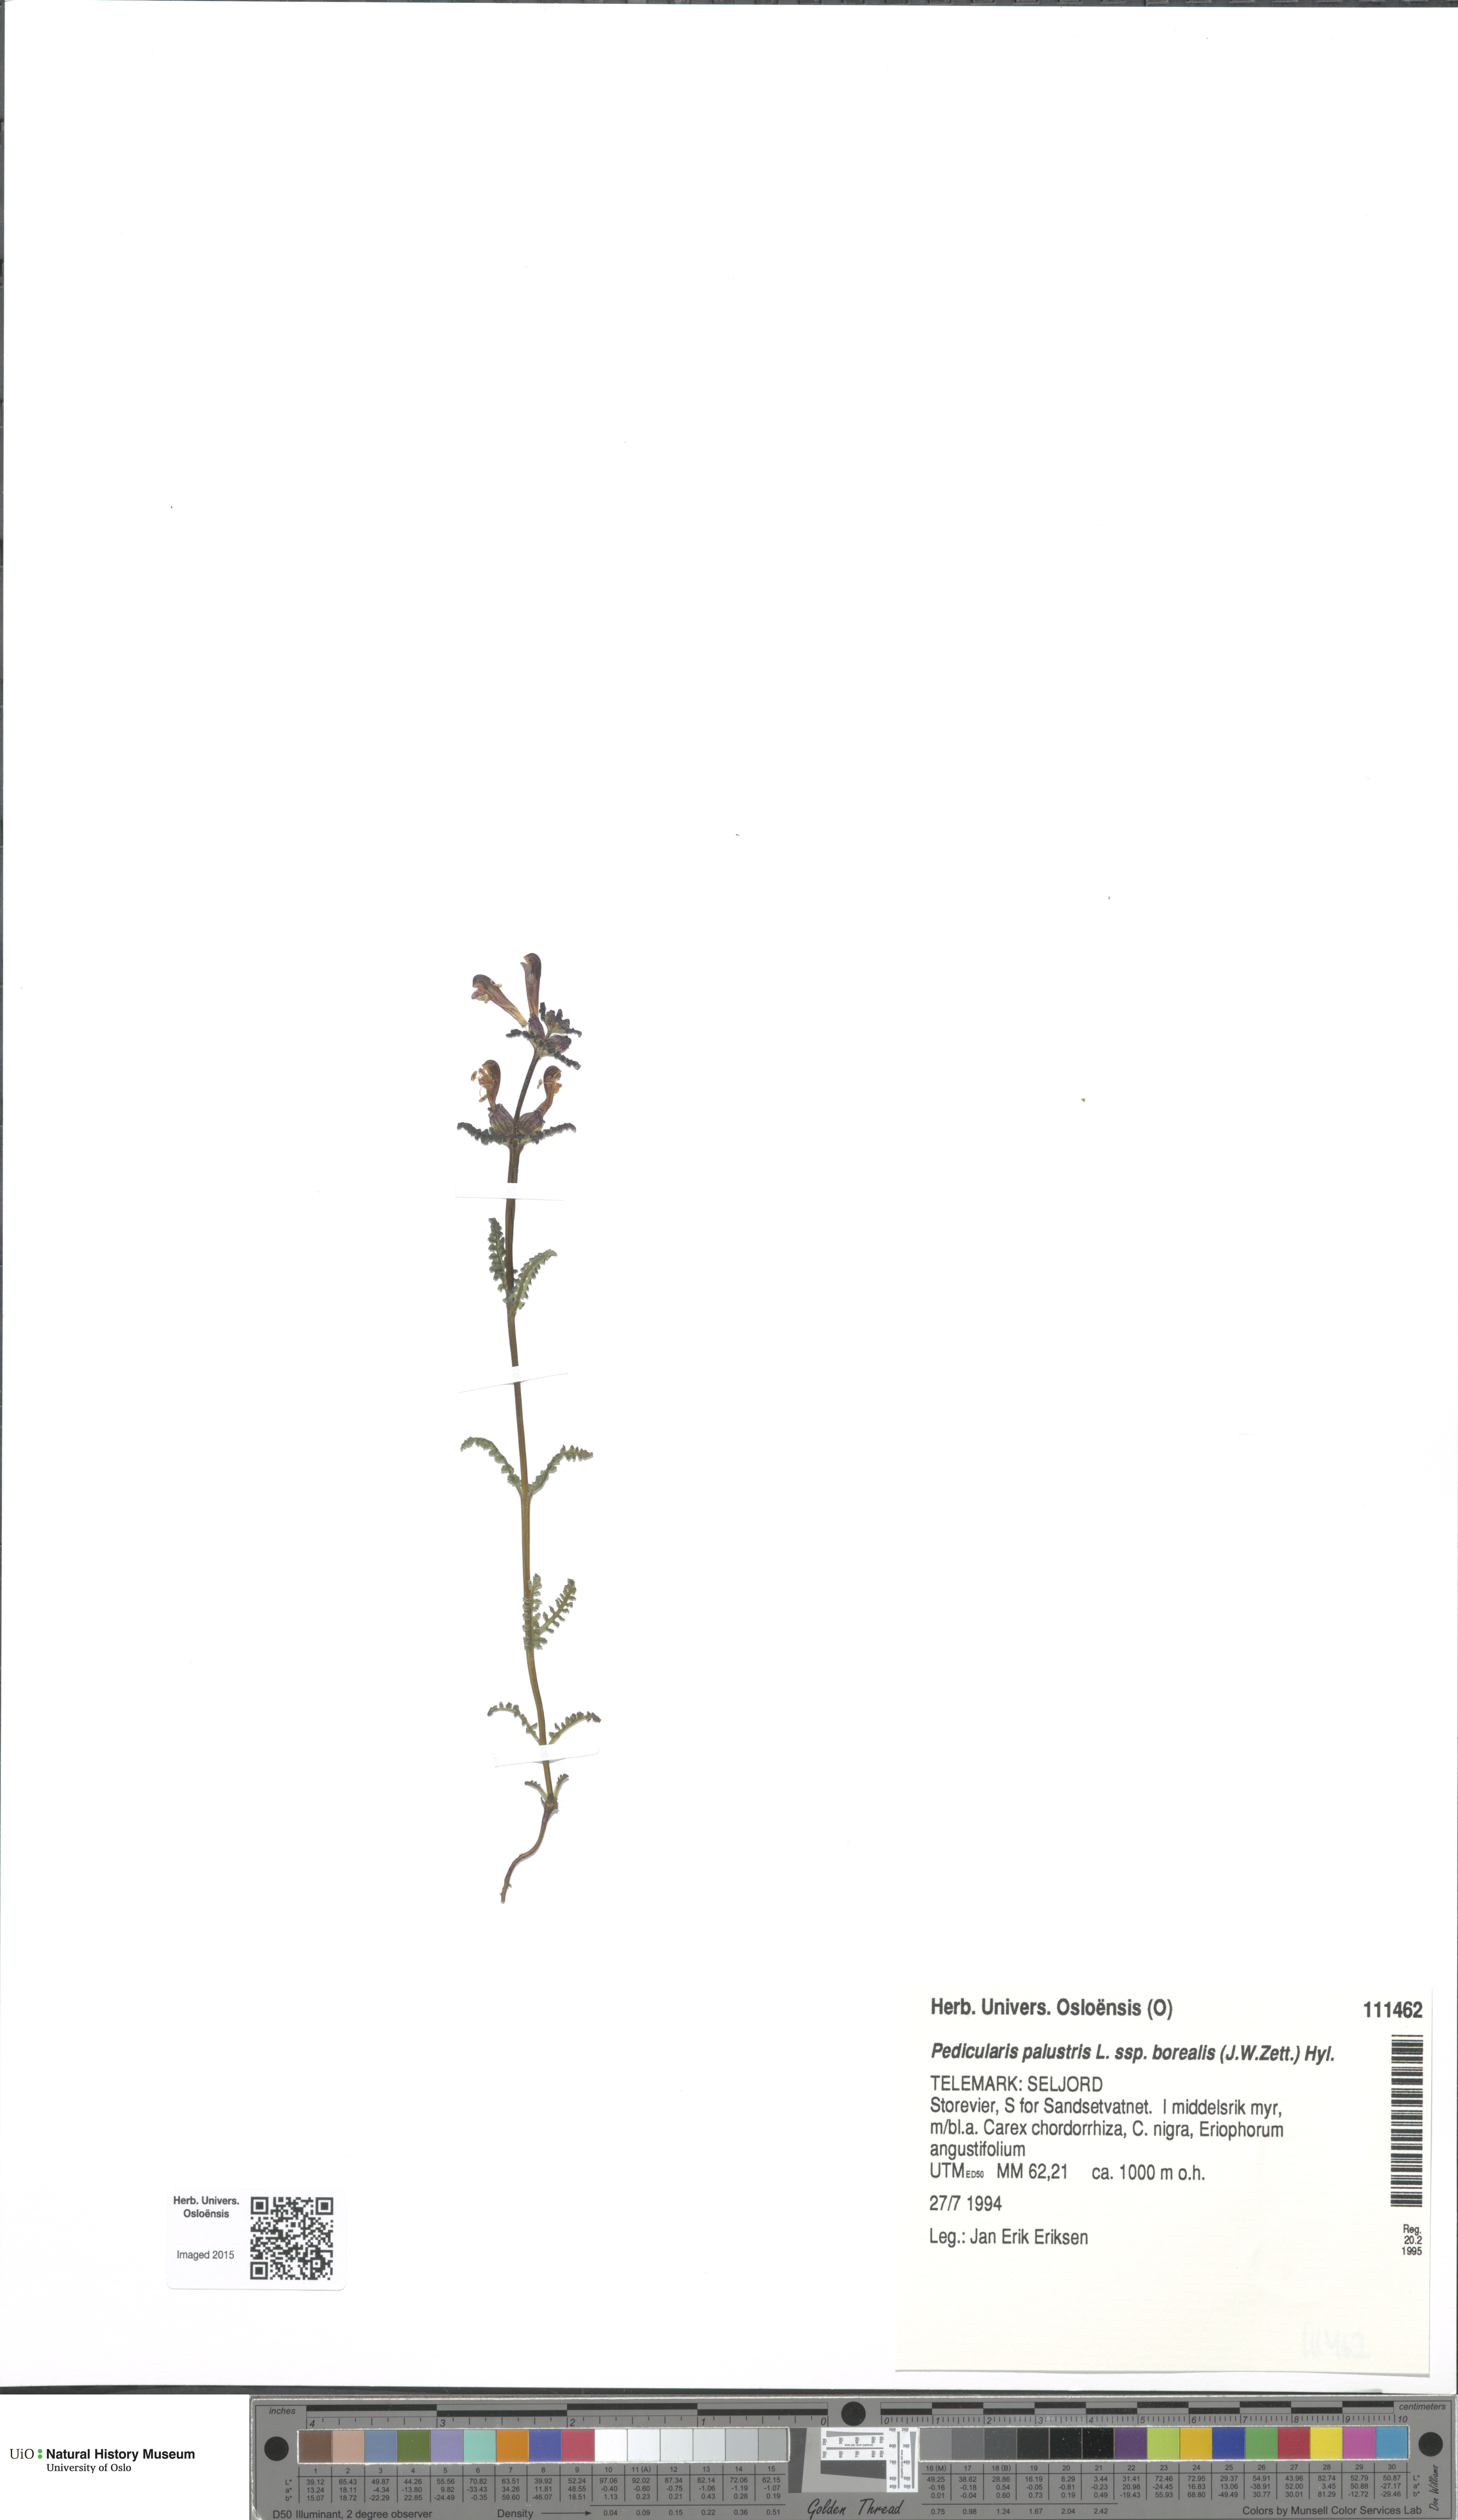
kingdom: Plantae
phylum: Tracheophyta
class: Magnoliopsida
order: Lamiales
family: Orobanchaceae
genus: Pedicularis
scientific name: Pedicularis palustris
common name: Marsh lousewort
